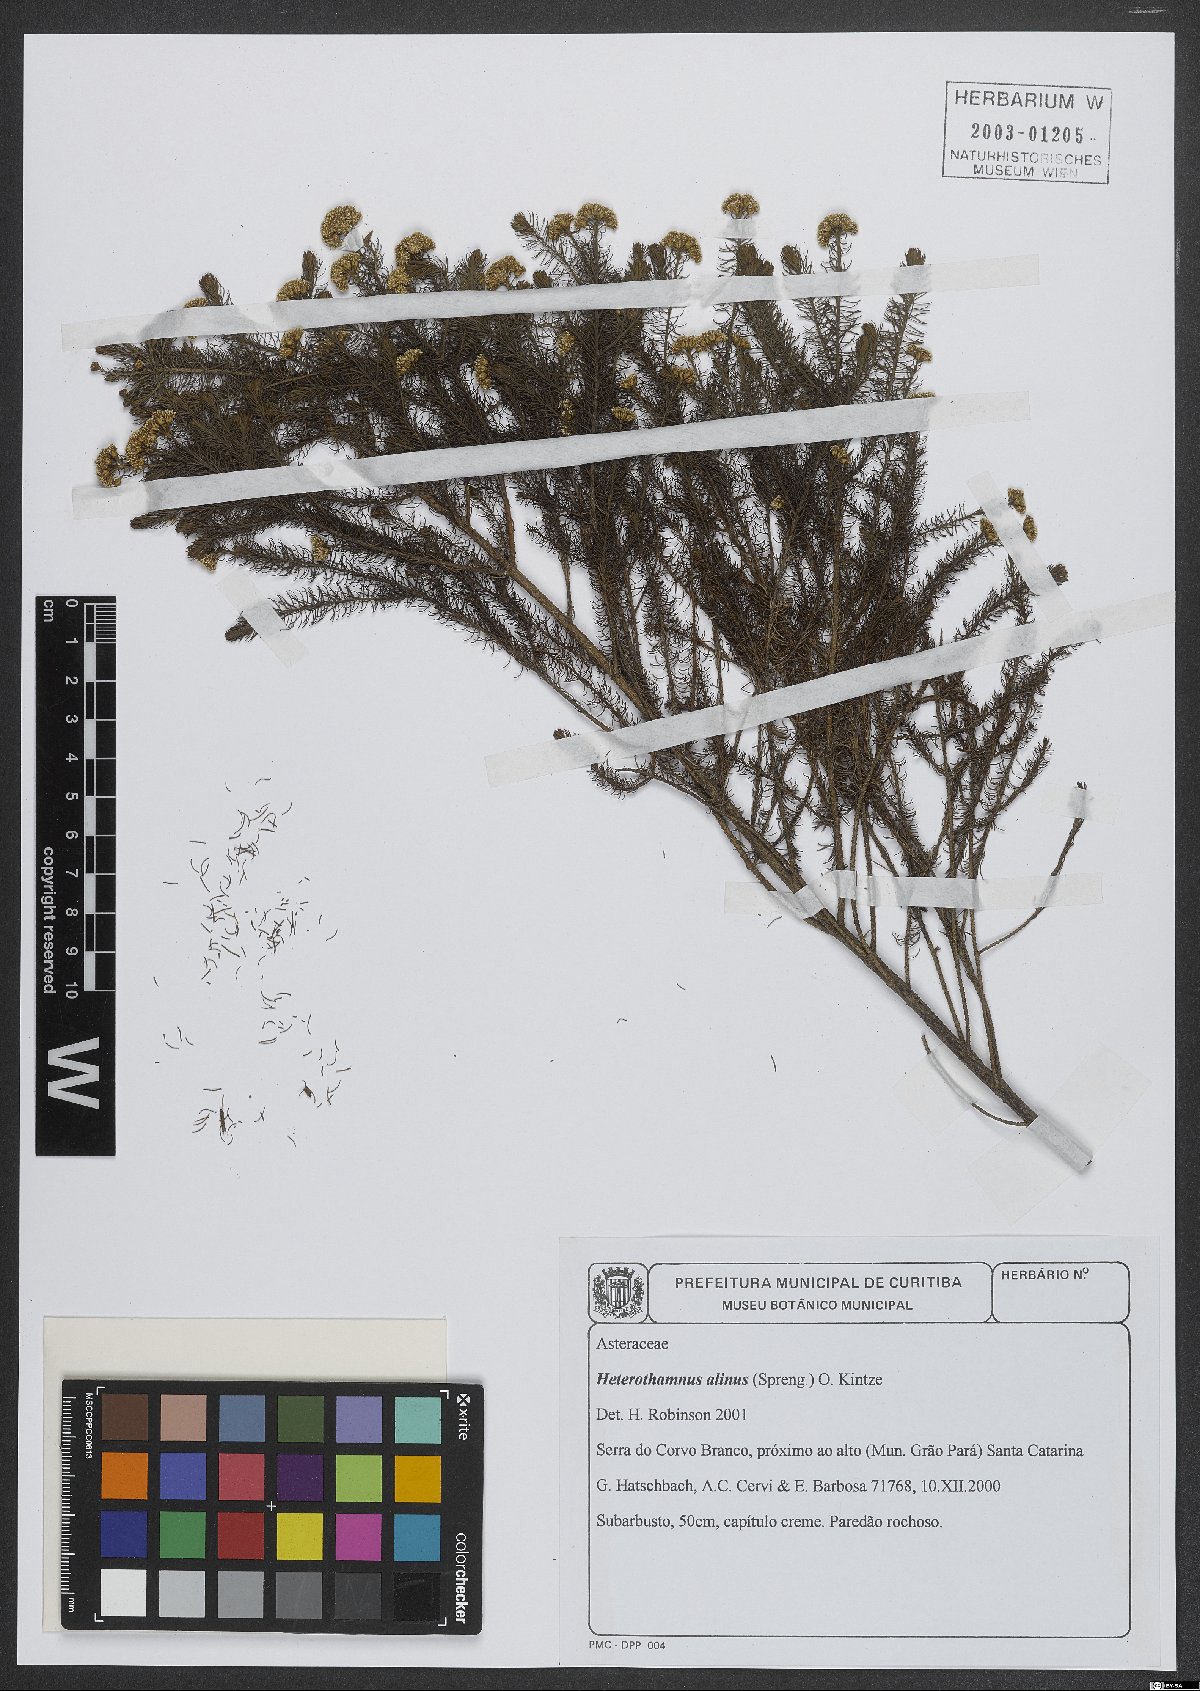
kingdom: Plantae
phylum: Tracheophyta
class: Magnoliopsida
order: Asterales
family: Asteraceae
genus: Baccharis
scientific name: Baccharis aliena
